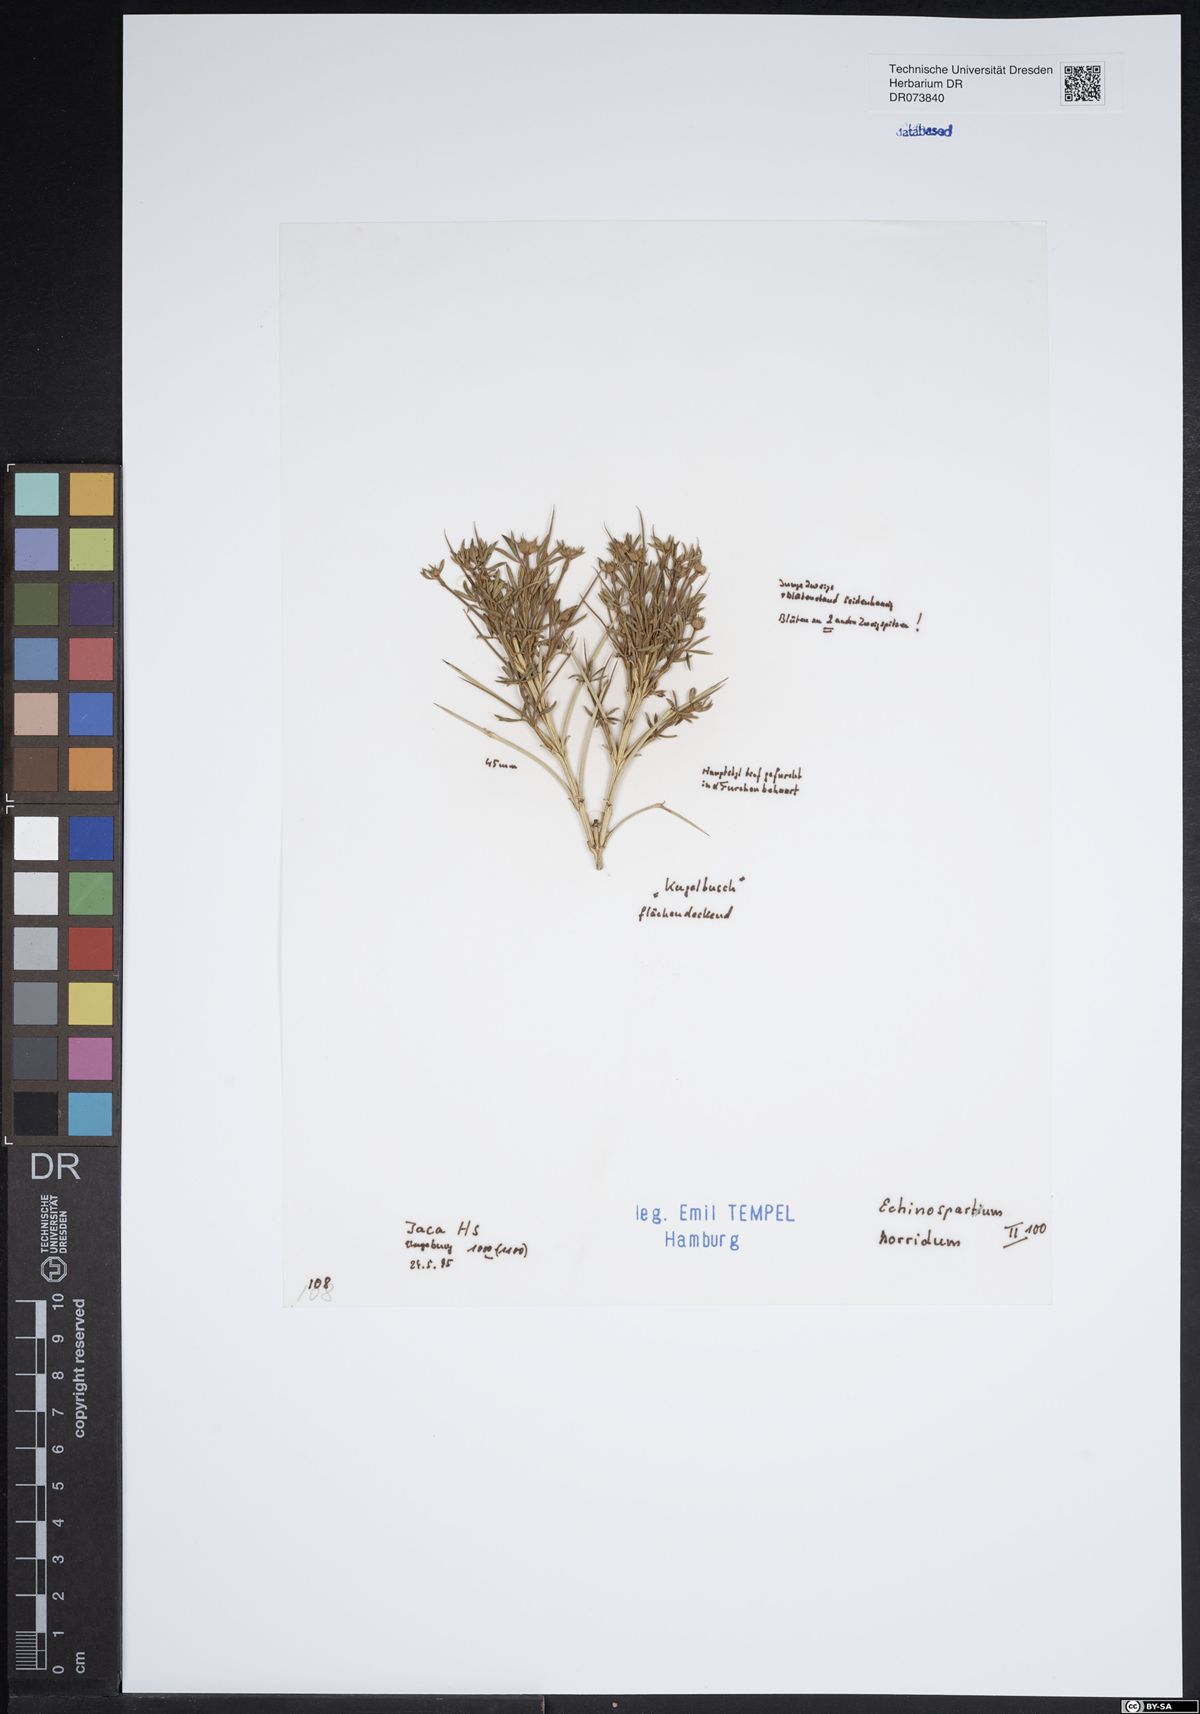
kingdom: Plantae
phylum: Tracheophyta
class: Magnoliopsida
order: Fabales
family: Fabaceae
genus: Echinospartum
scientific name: Echinospartum horridum
